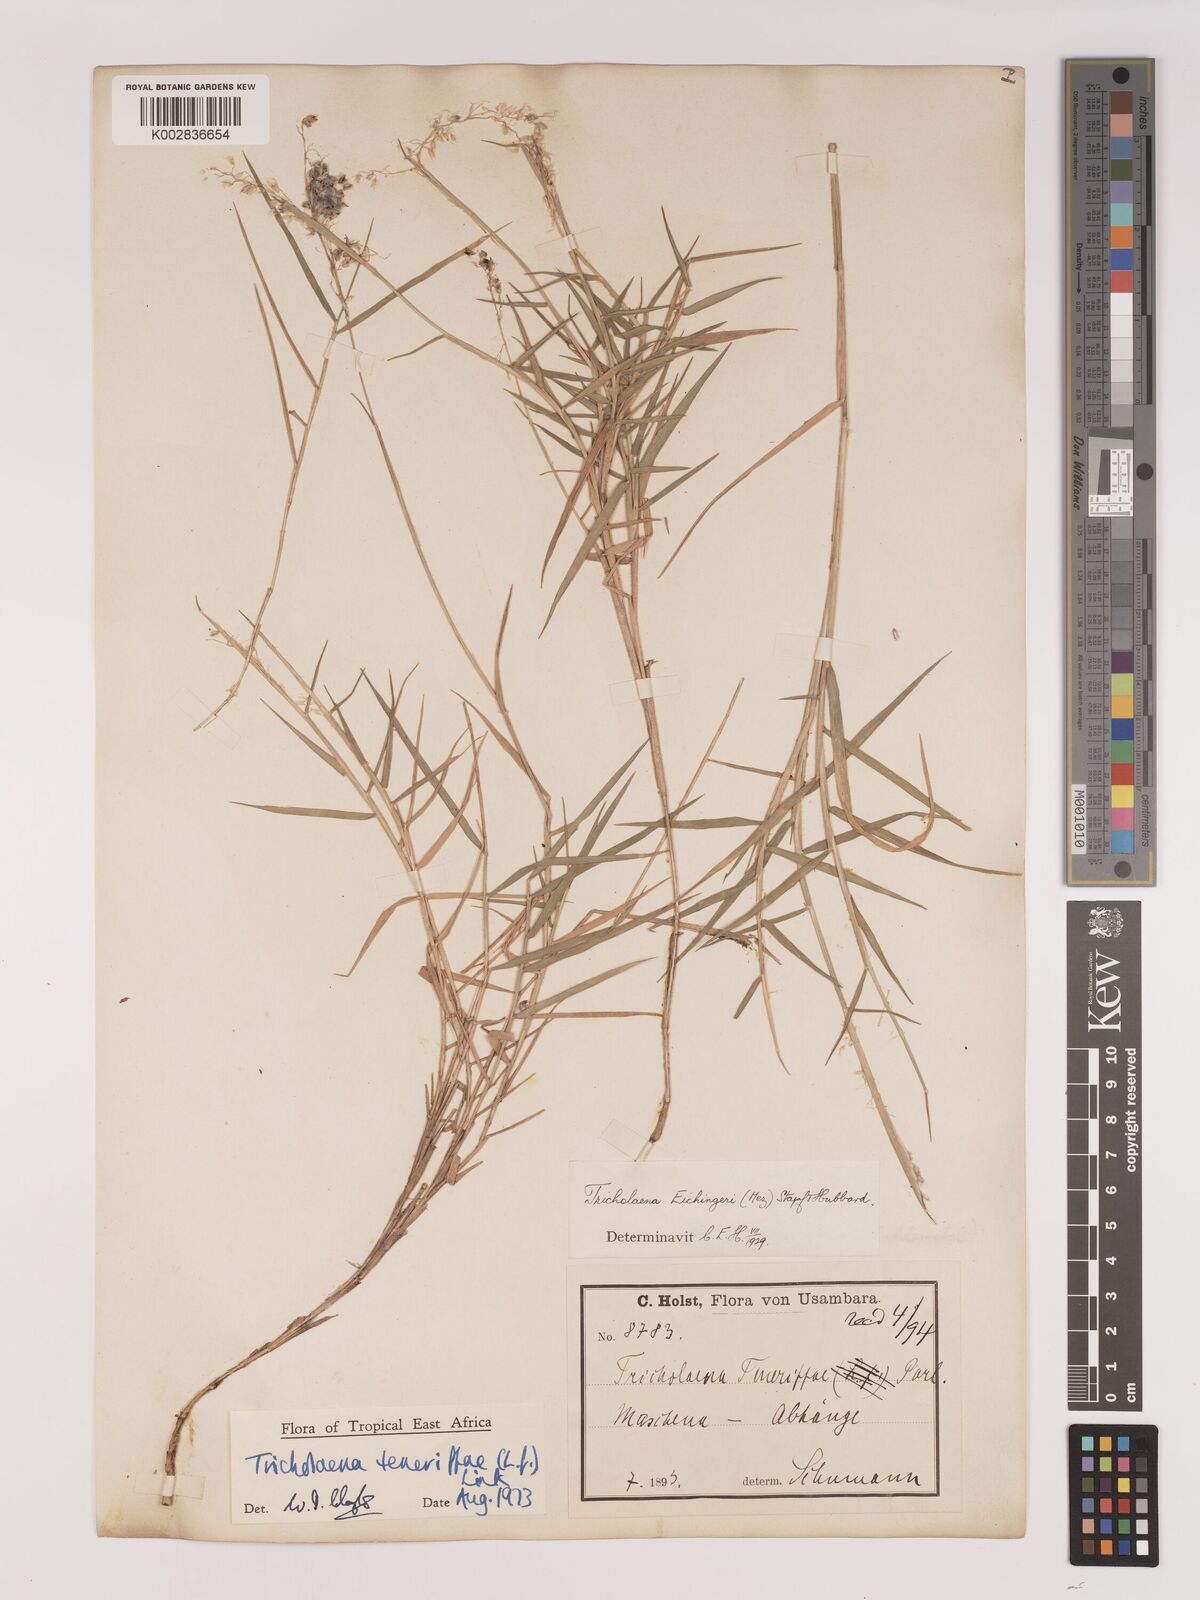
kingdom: Plantae
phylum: Tracheophyta
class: Liliopsida
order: Poales
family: Poaceae
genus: Tricholaena
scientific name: Tricholaena teneriffae
